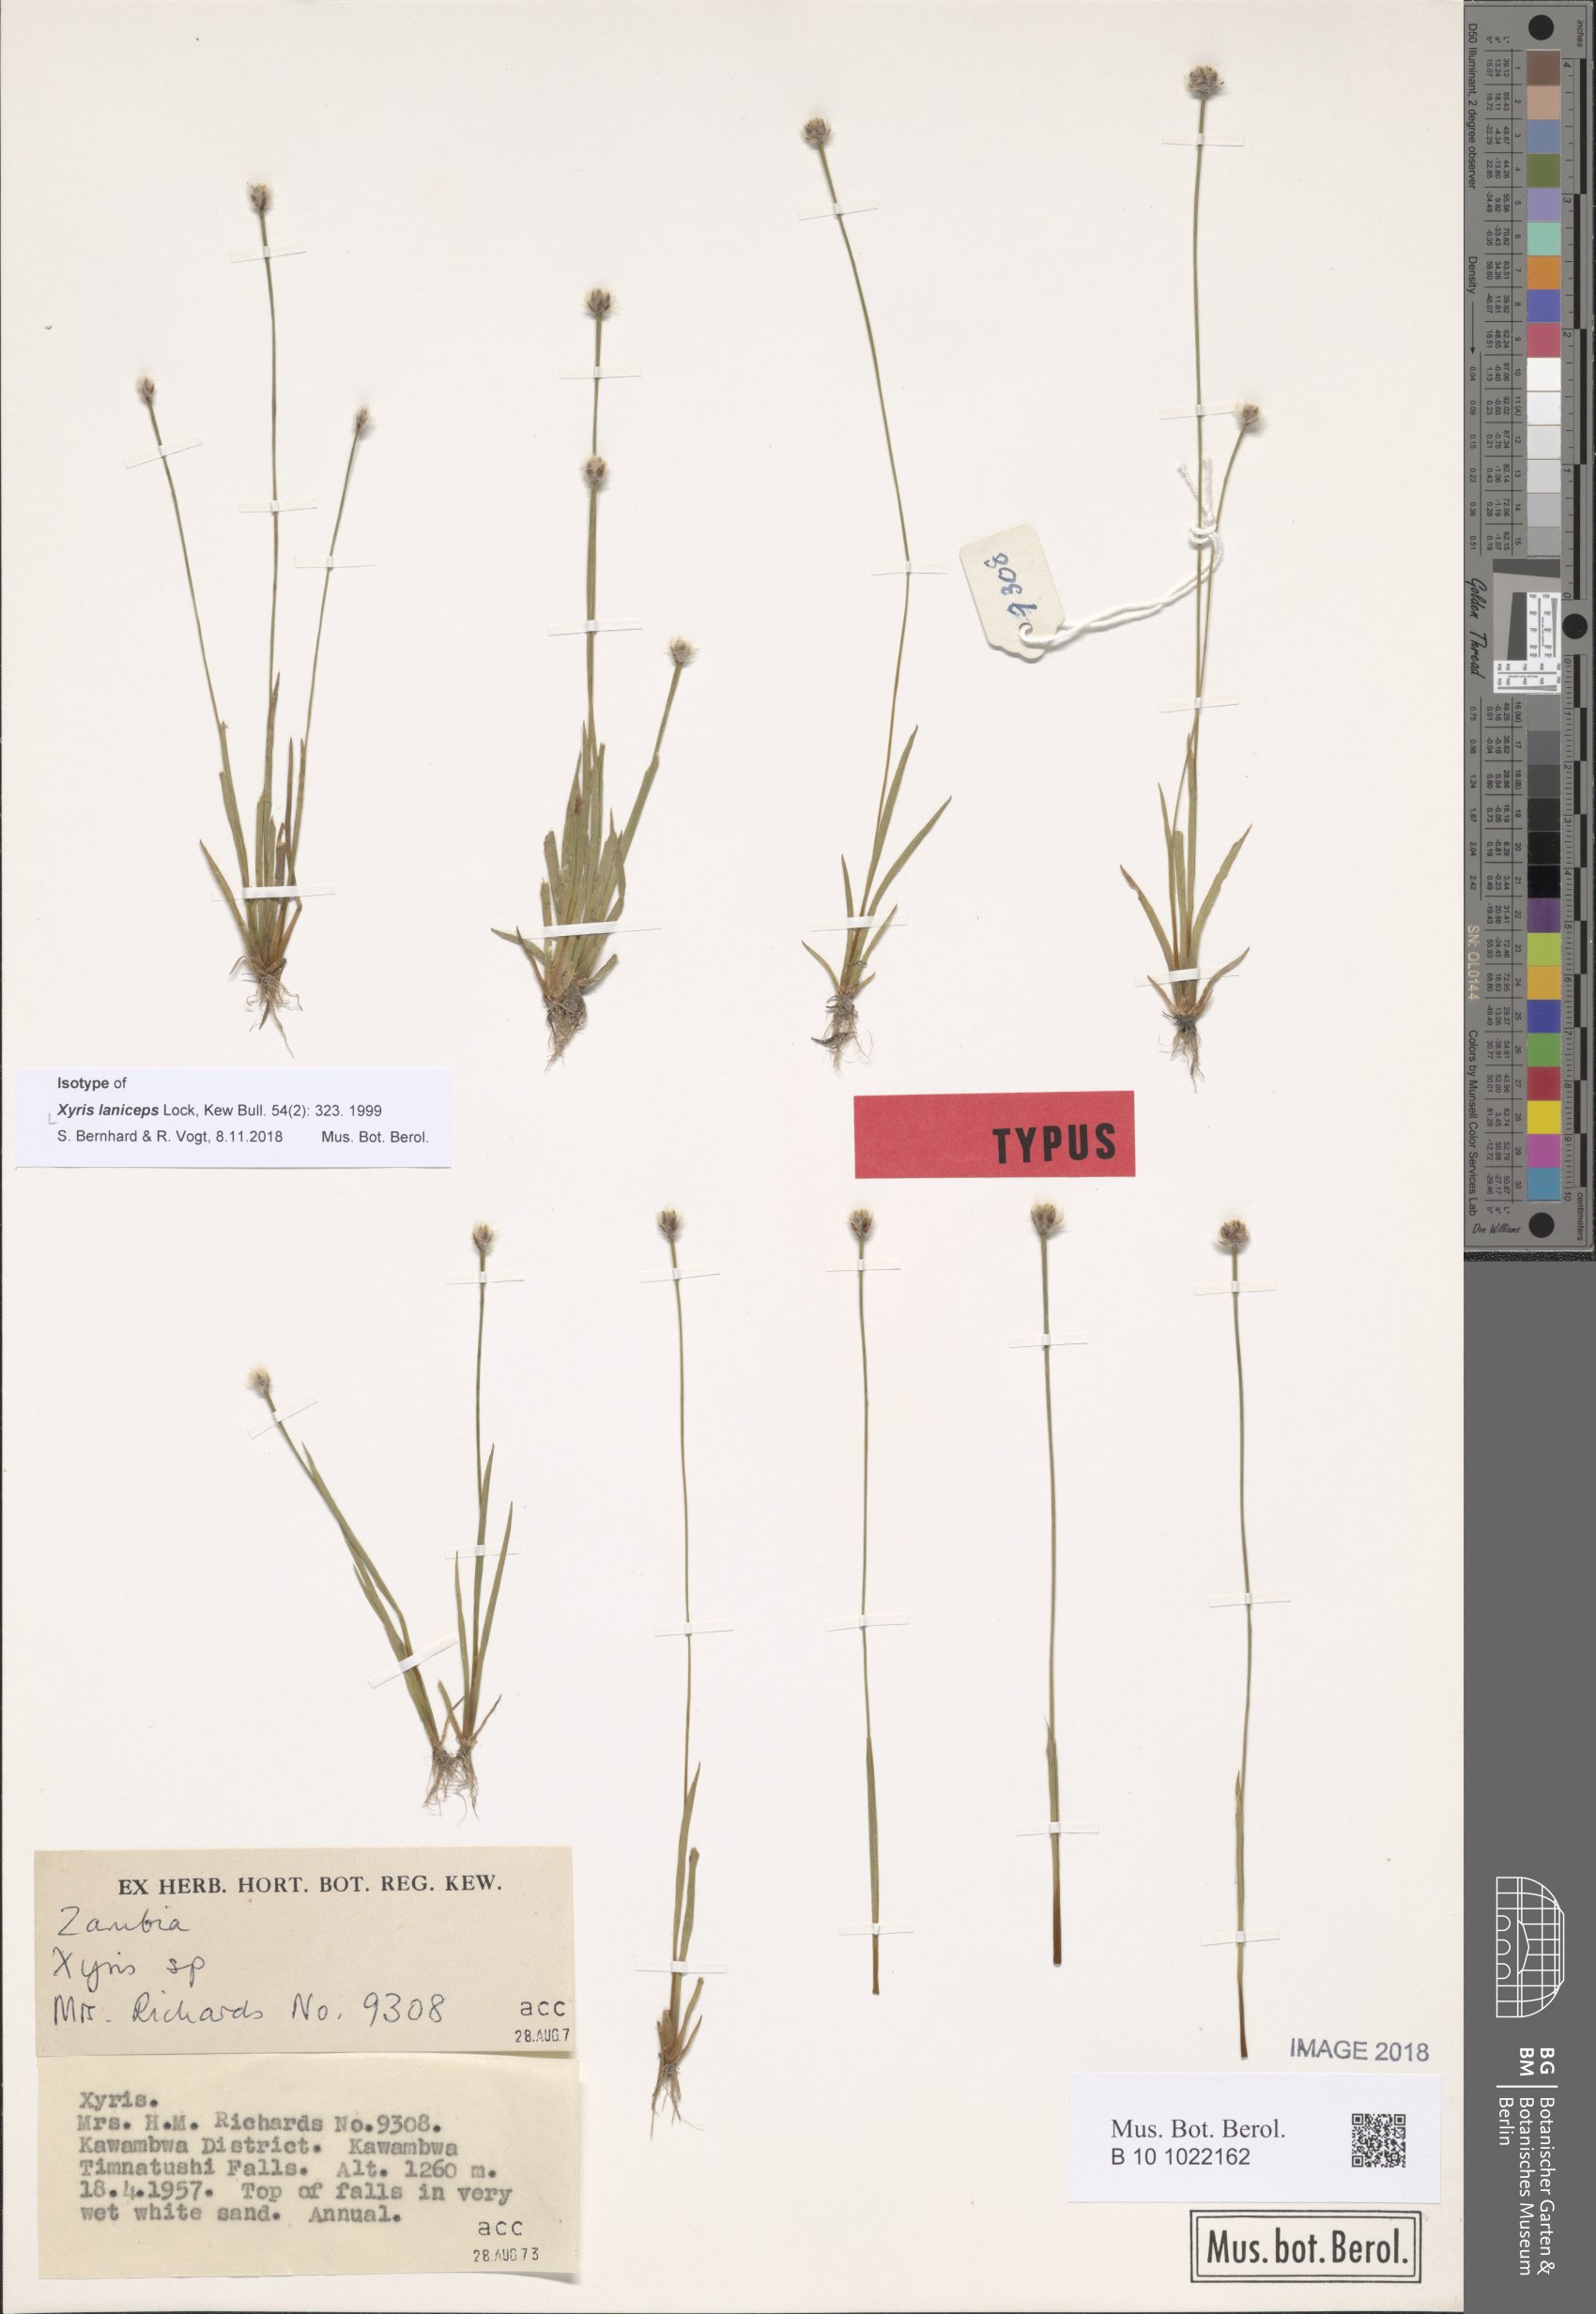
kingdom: Plantae
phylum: Tracheophyta
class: Liliopsida
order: Poales
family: Xyridaceae
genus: Xyris
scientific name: Xyris laniceps
